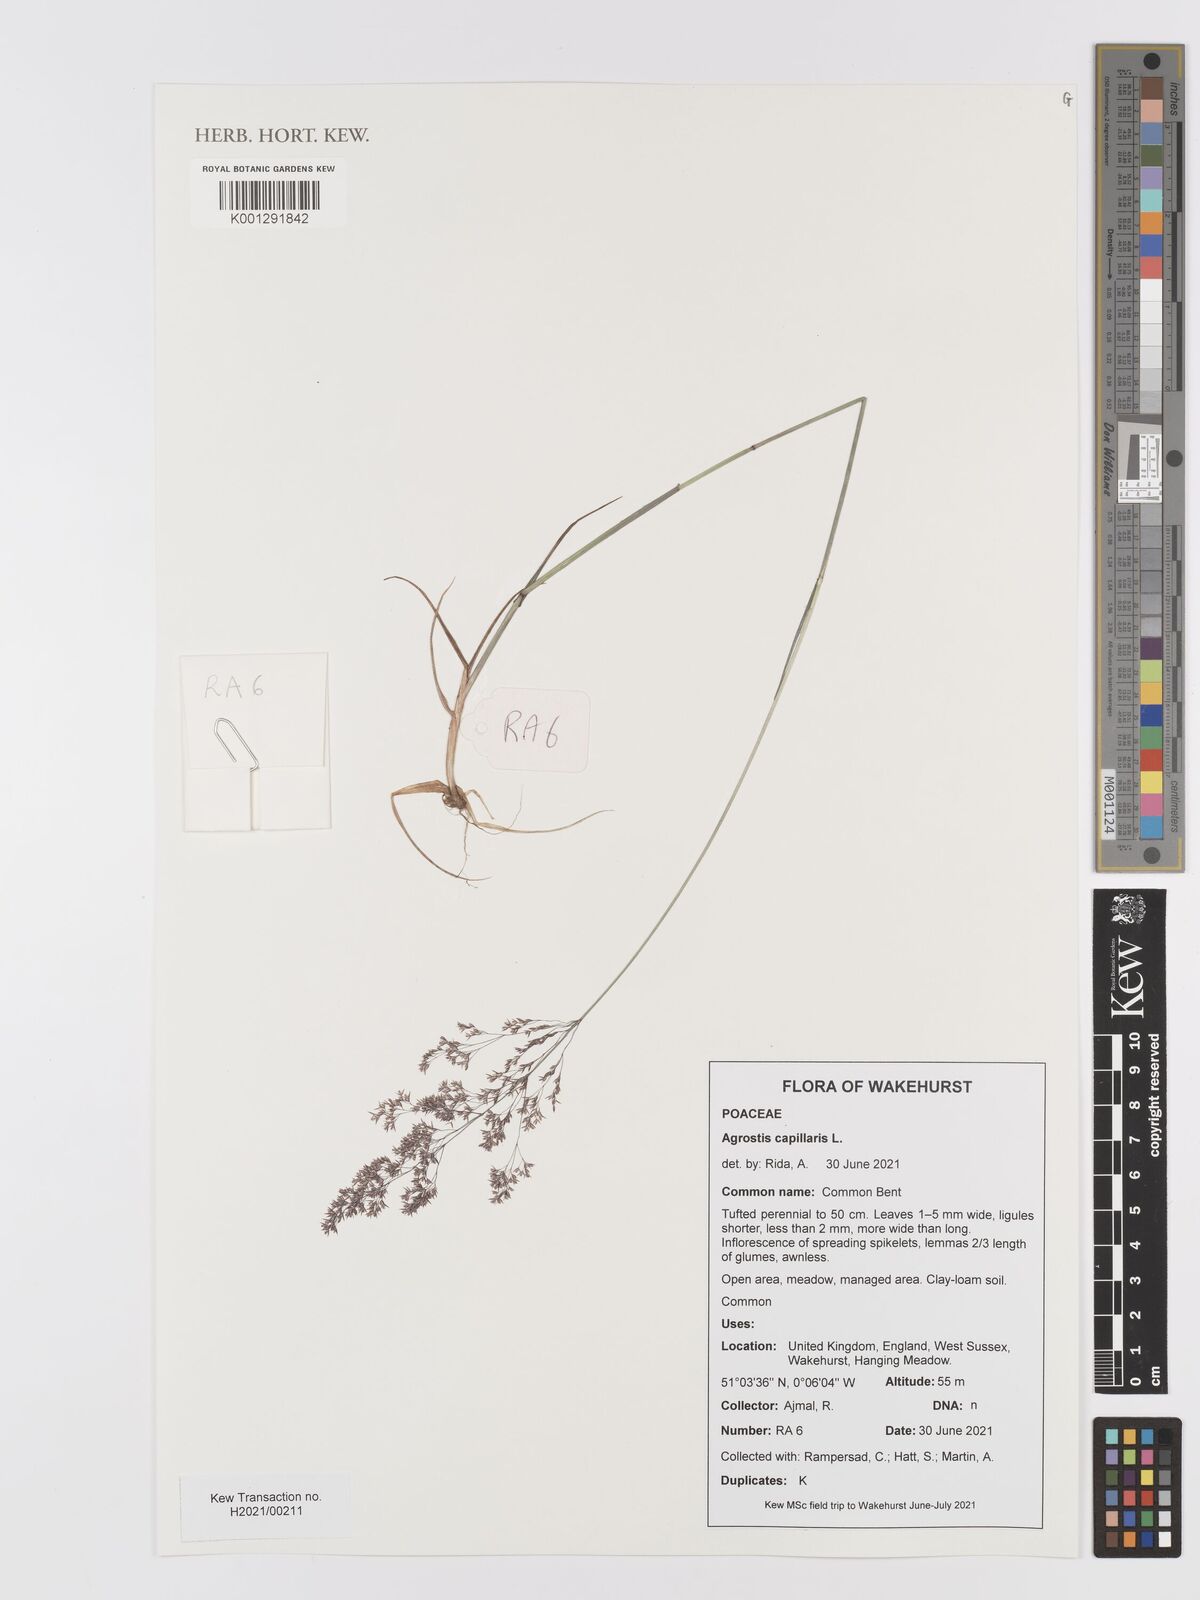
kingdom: Plantae
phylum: Tracheophyta
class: Liliopsida
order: Poales
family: Poaceae
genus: Agrostis
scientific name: Agrostis capillaris
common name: Colonial bentgrass
